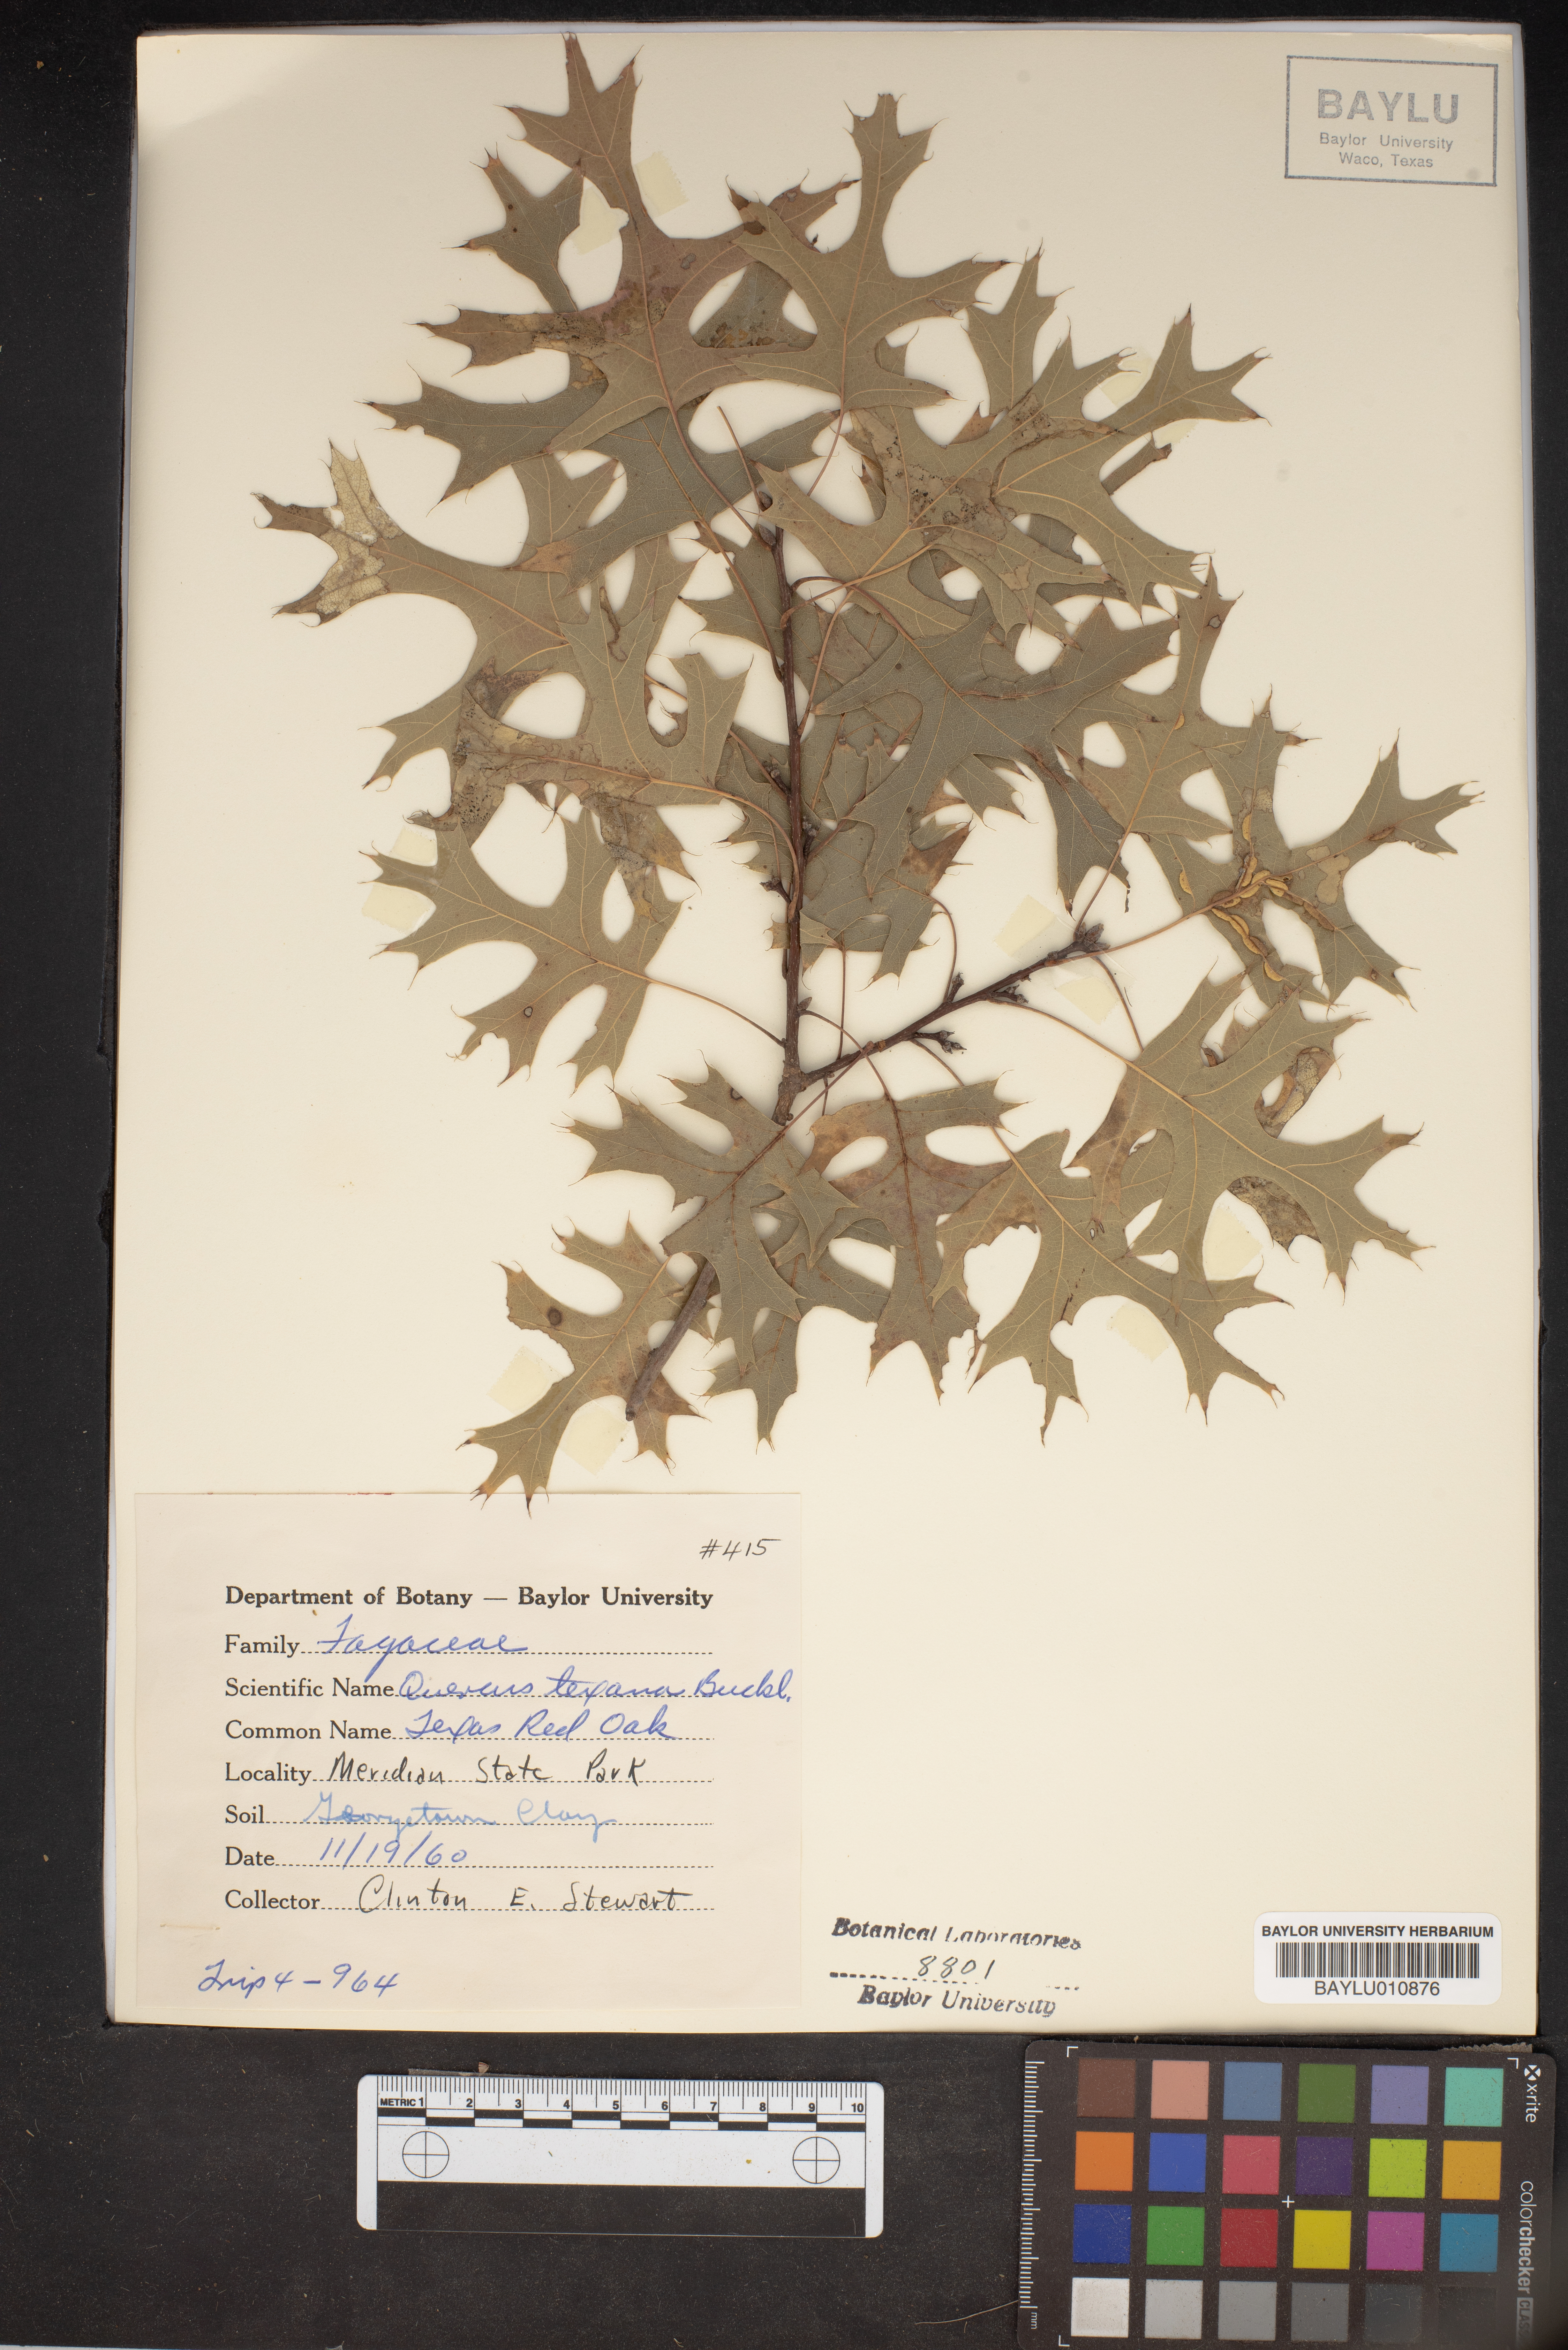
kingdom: Plantae
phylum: Tracheophyta
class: Magnoliopsida
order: Fagales
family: Fagaceae
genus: Quercus
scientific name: Quercus texana
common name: Nuttall oak
